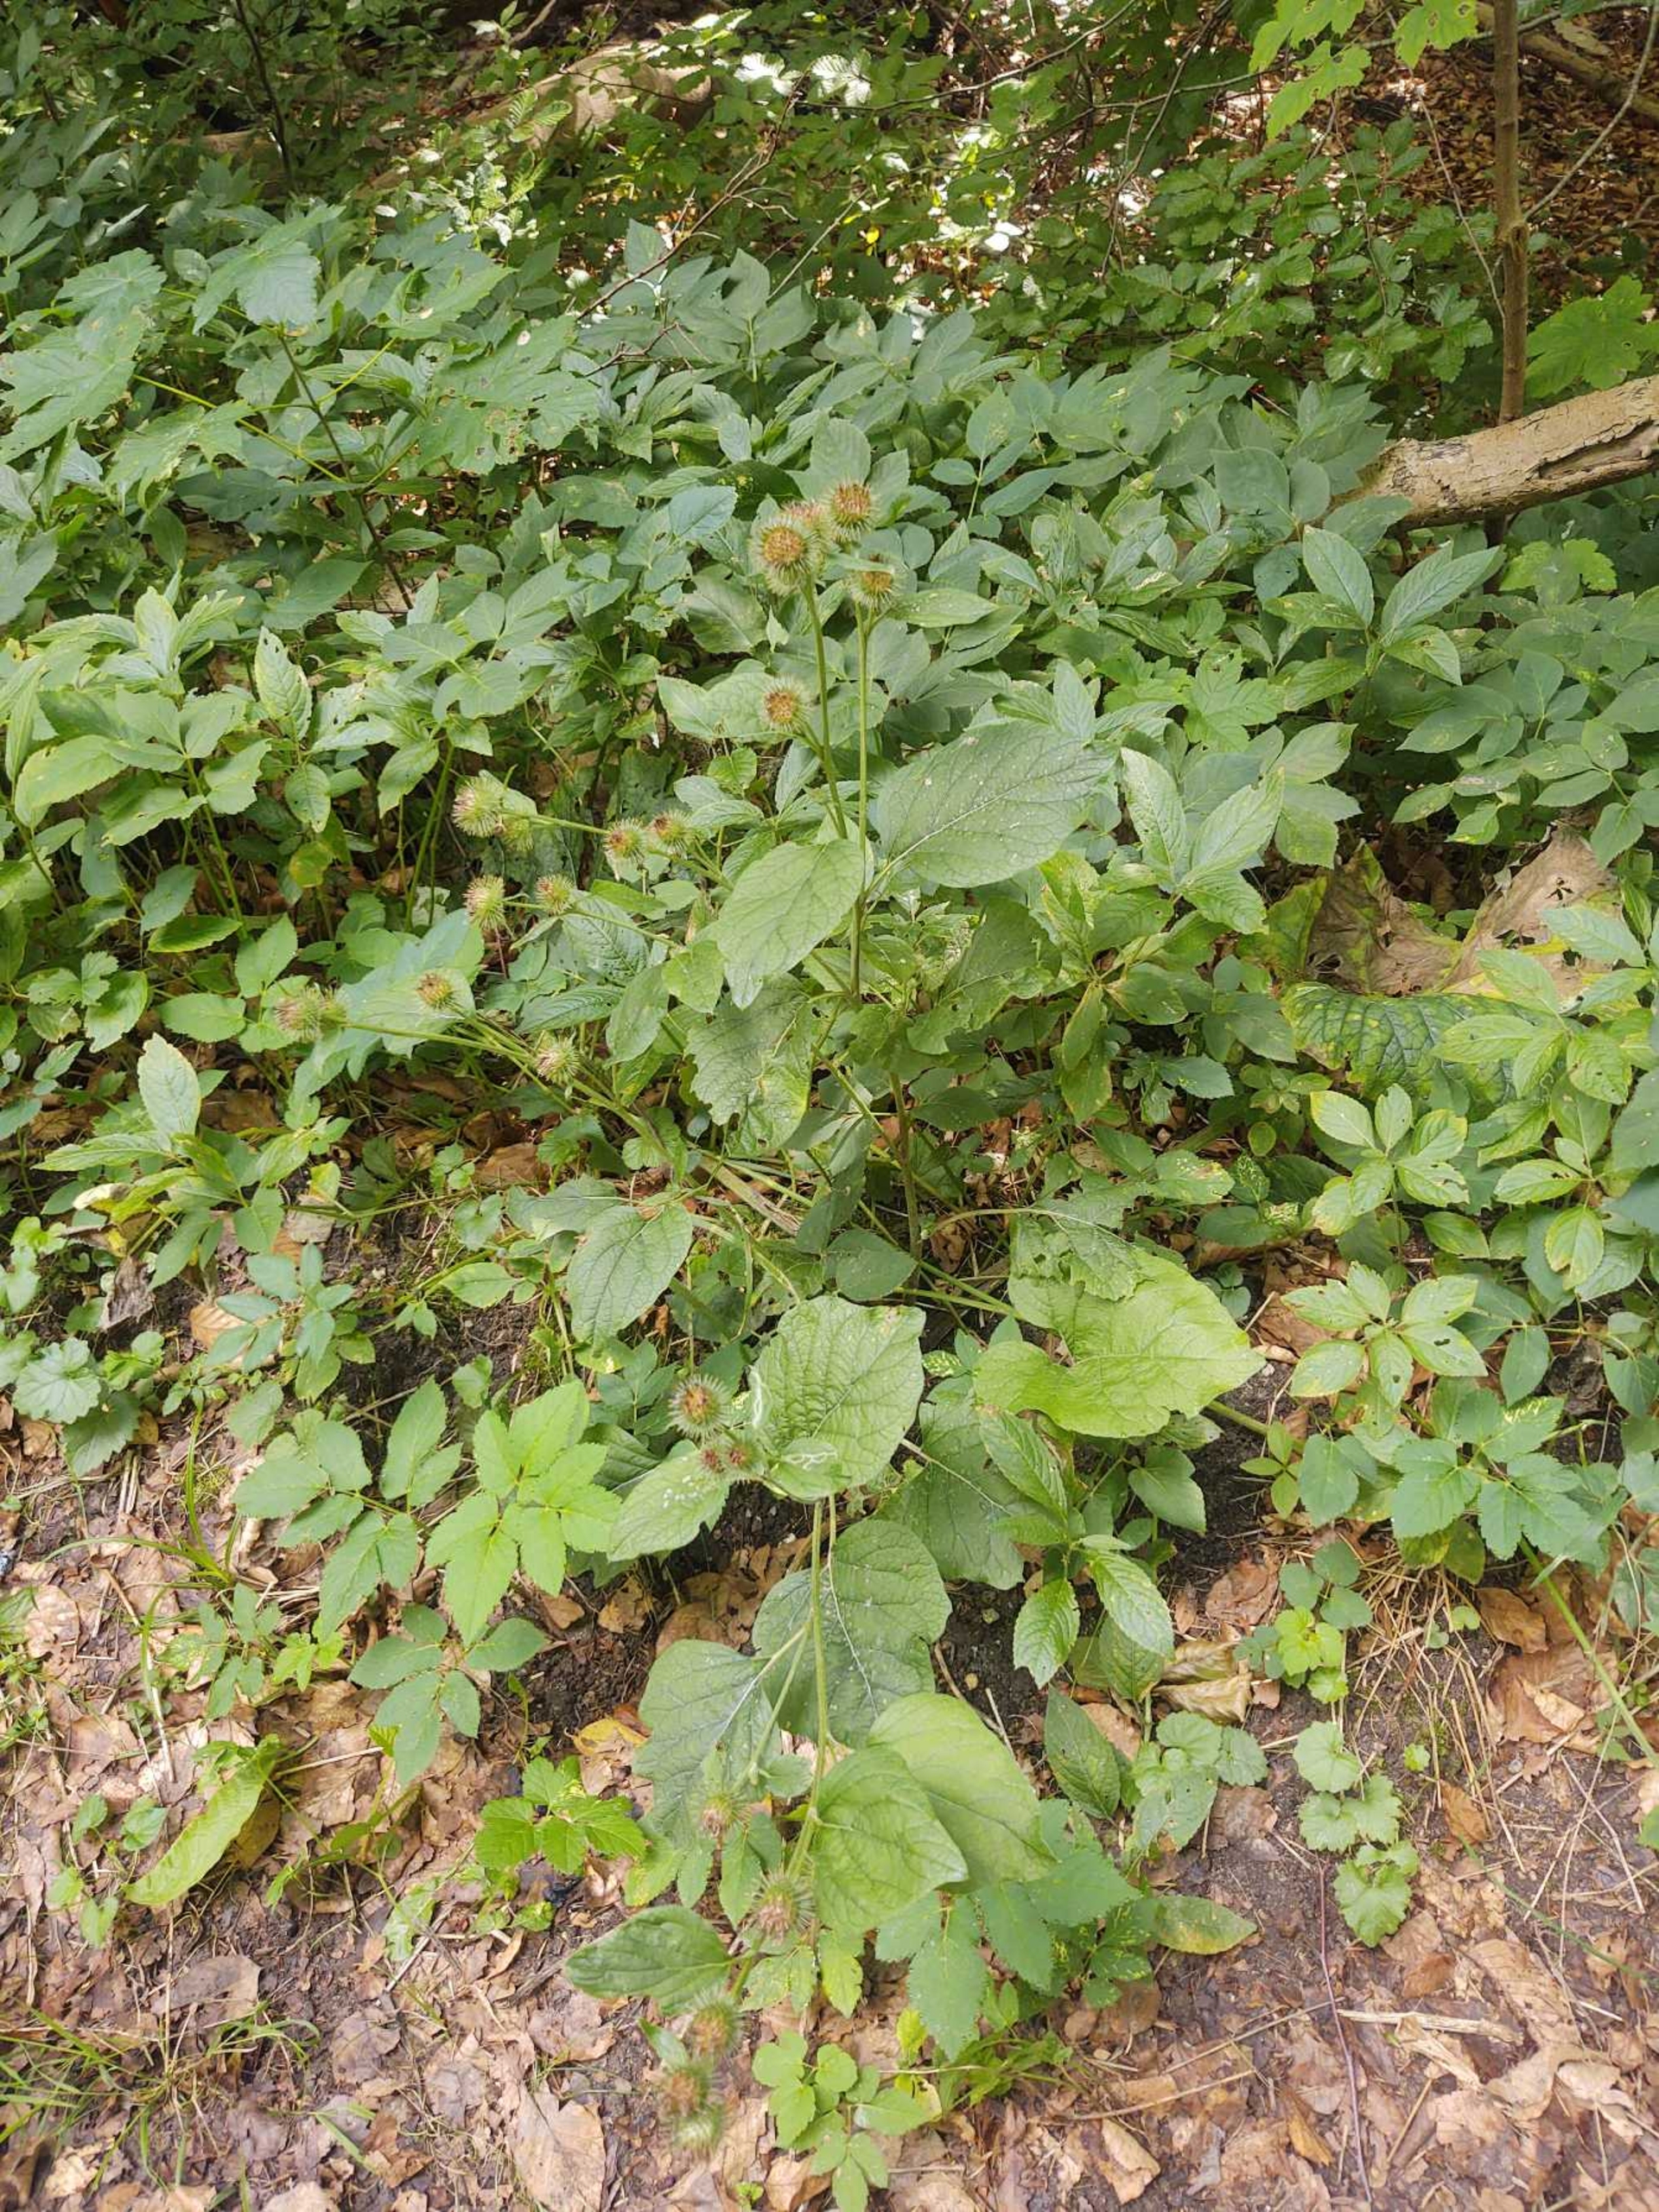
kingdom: Plantae
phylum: Tracheophyta
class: Magnoliopsida
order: Asterales
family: Asteraceae
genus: Arctium
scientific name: Arctium nemorosum
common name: Skov-burre
